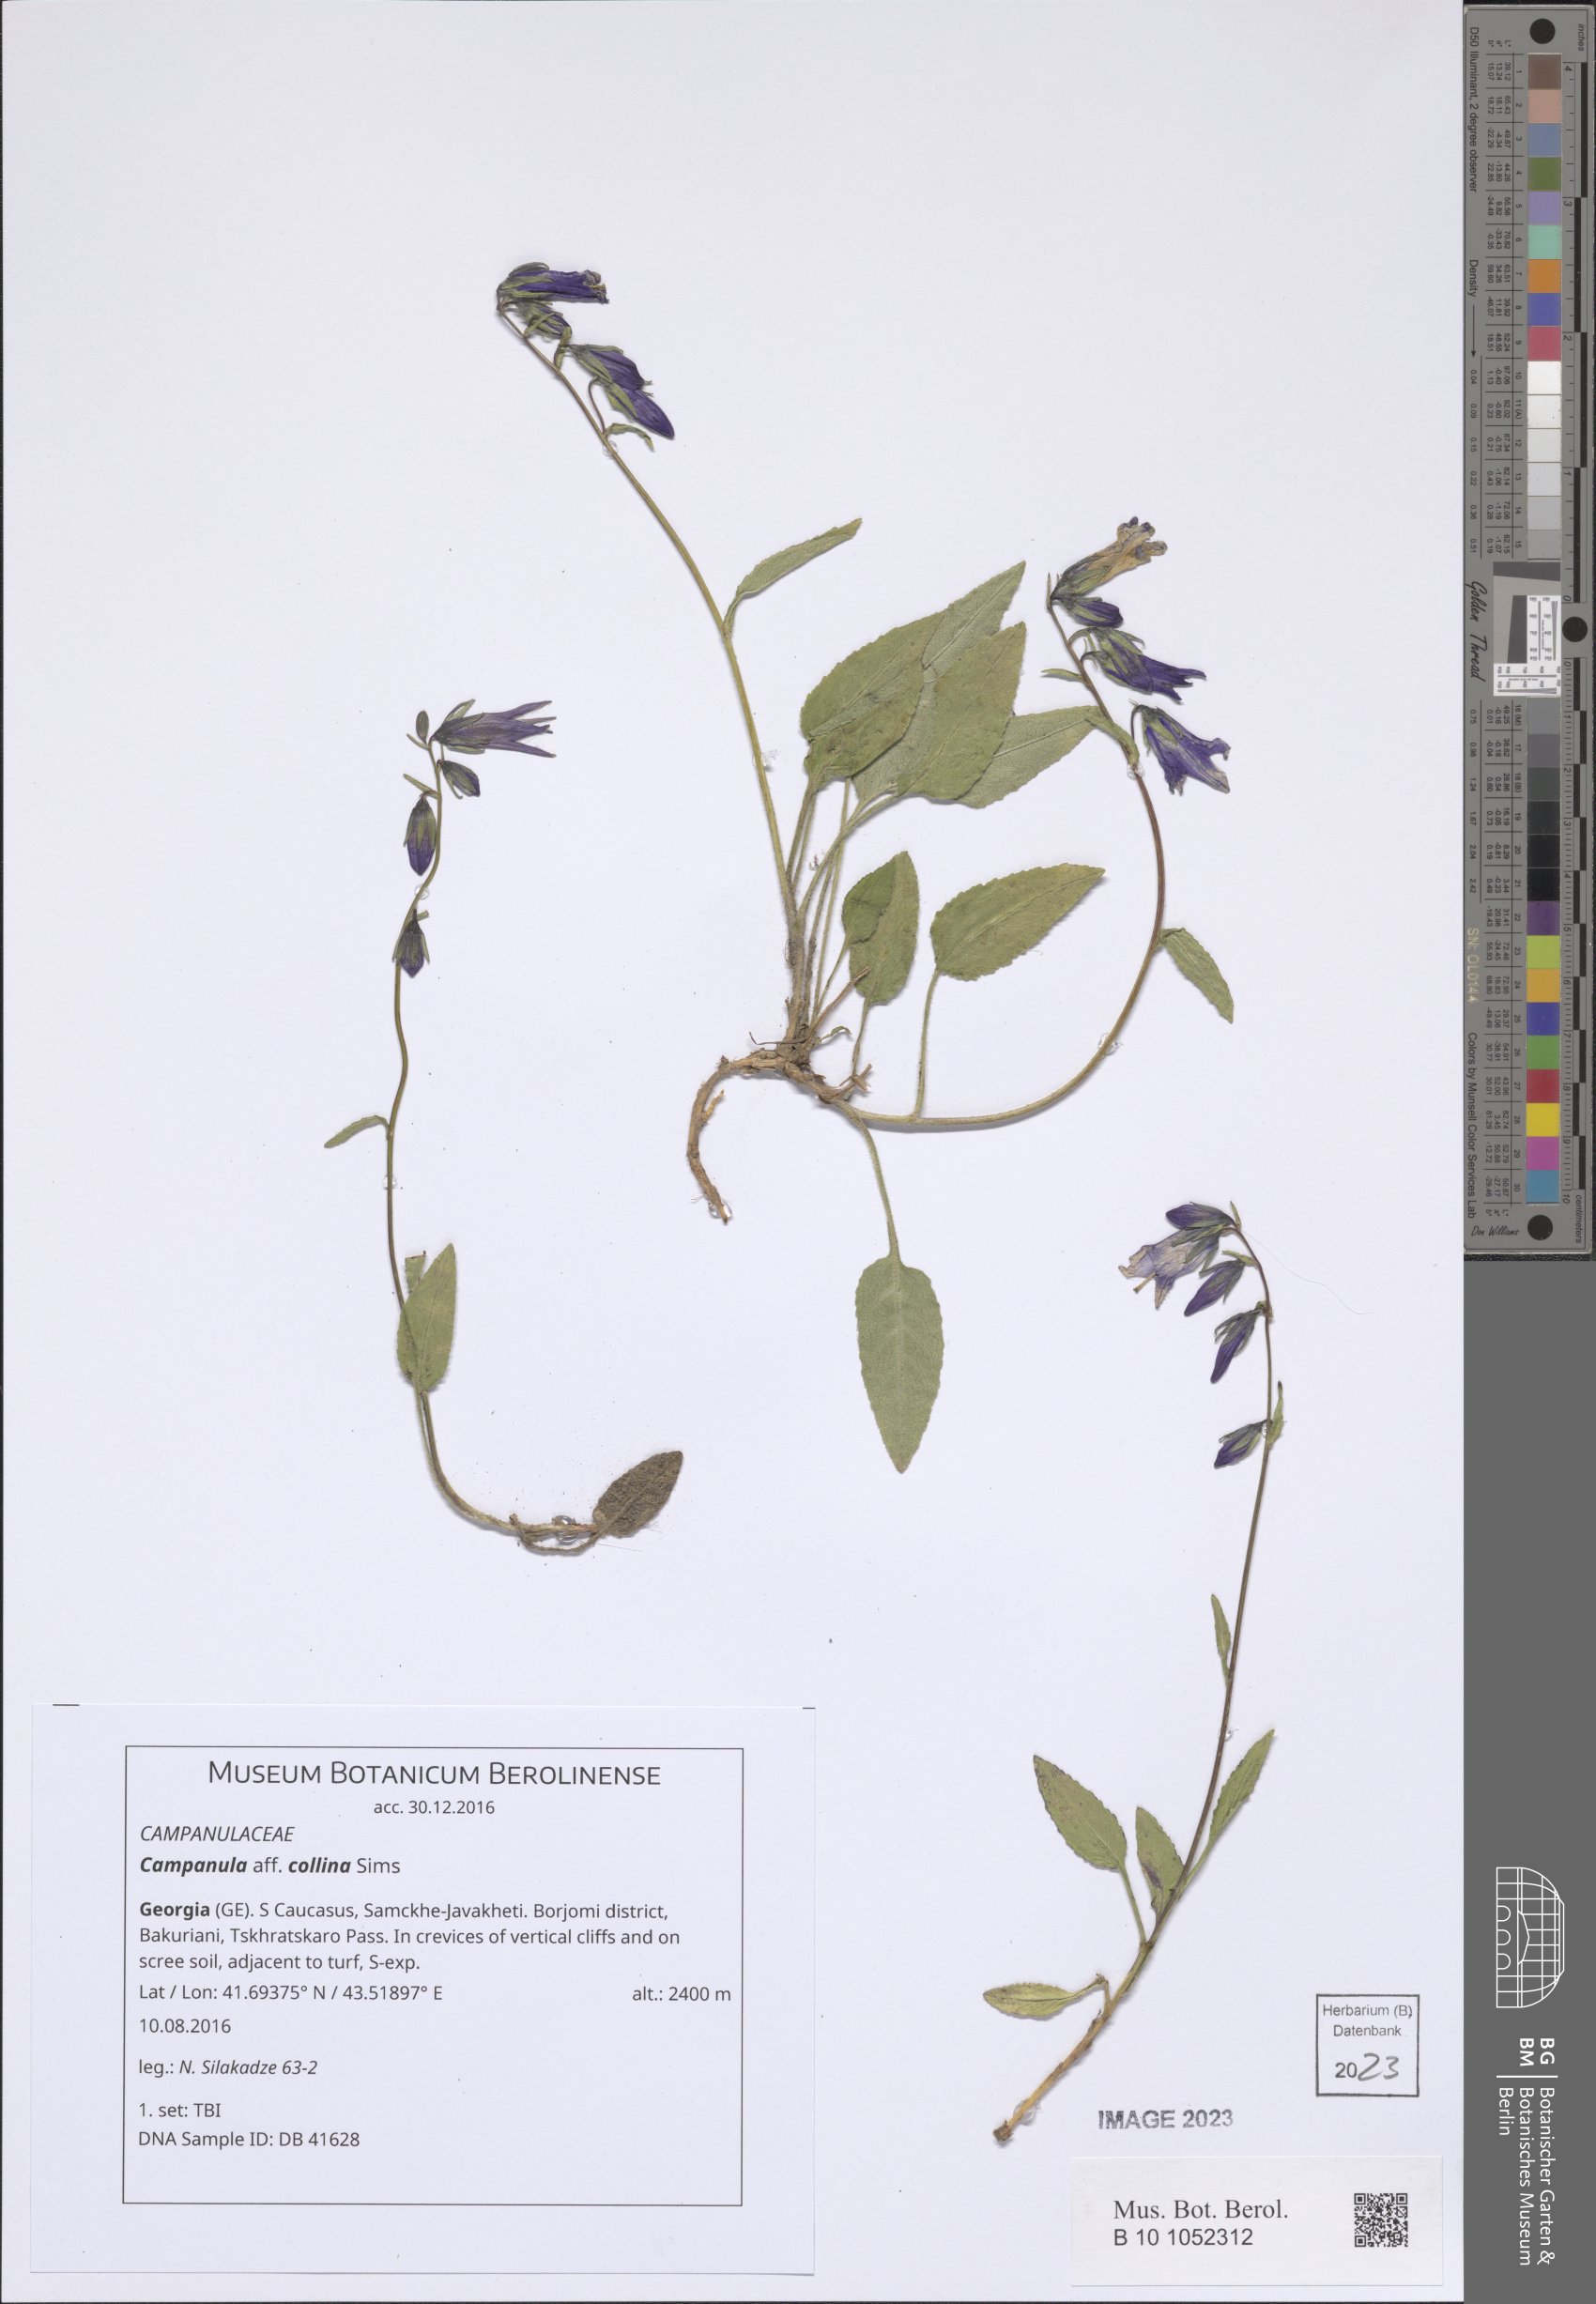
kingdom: Plantae
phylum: Tracheophyta
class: Magnoliopsida
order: Asterales
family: Campanulaceae
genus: Campanula
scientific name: Campanula collina
